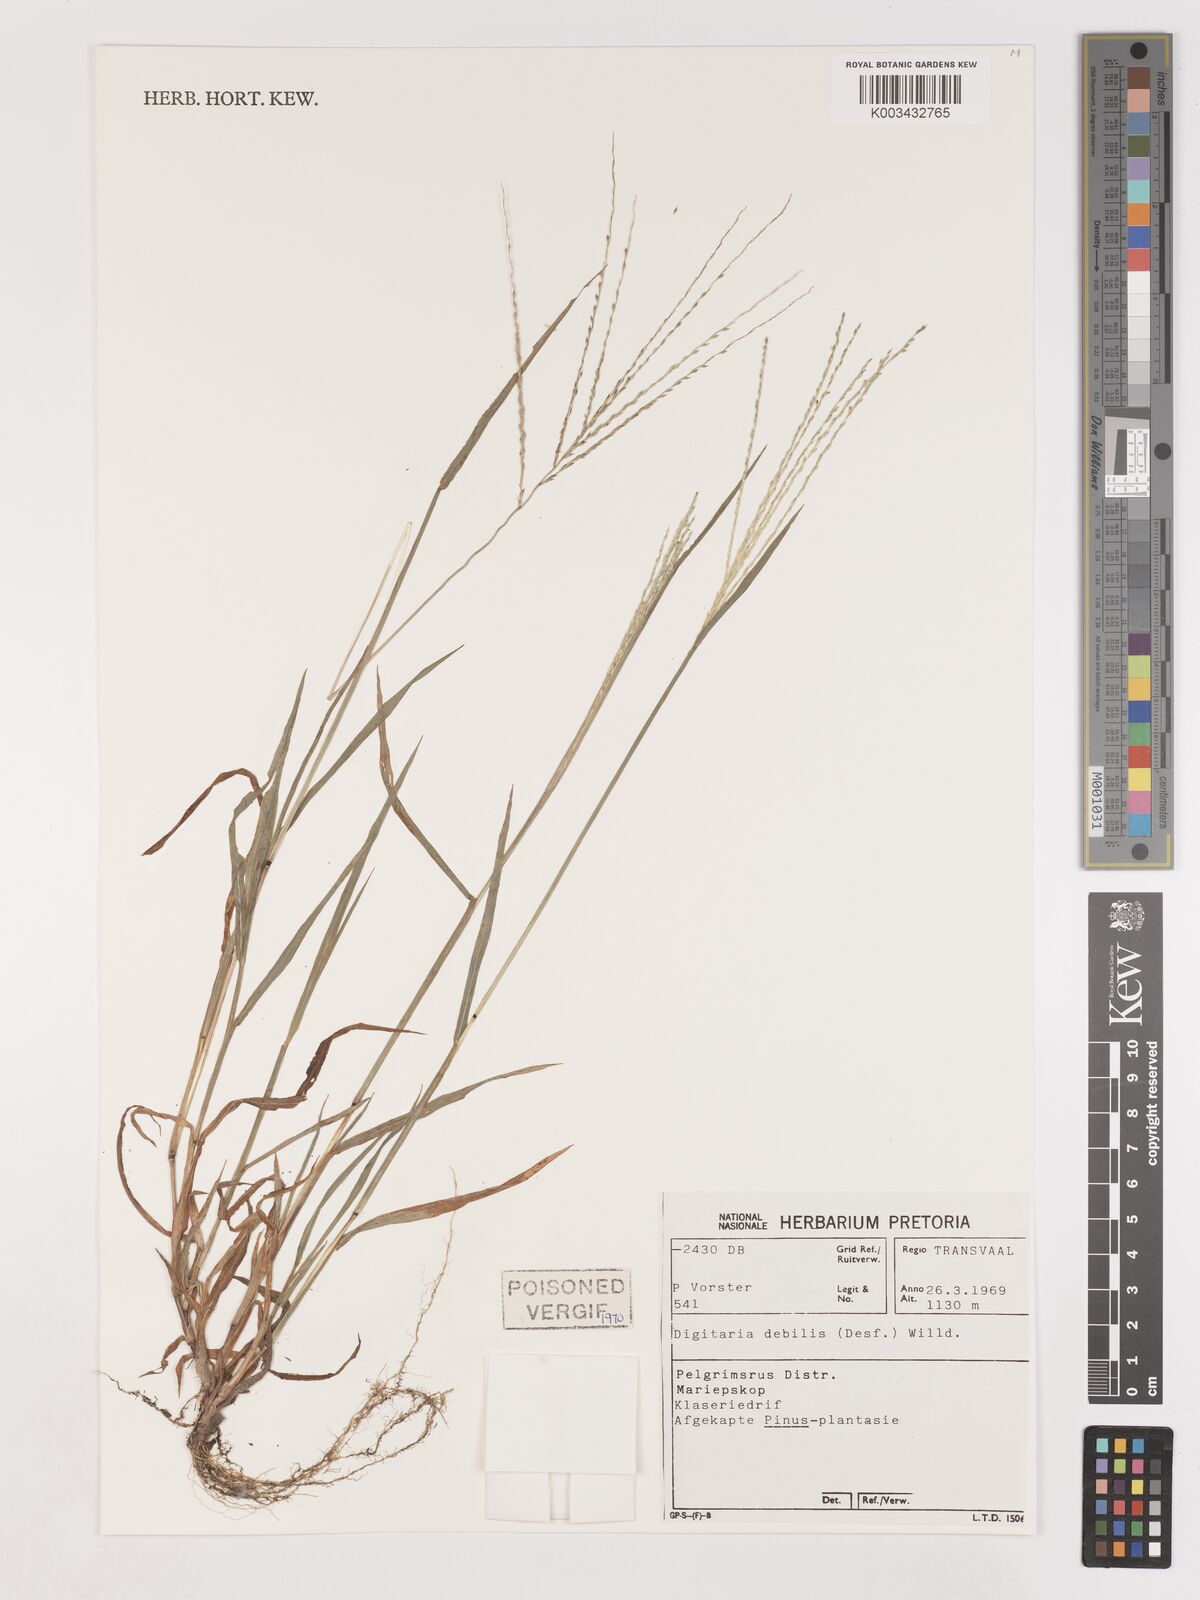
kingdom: Plantae
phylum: Tracheophyta
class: Liliopsida
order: Poales
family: Poaceae
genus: Digitaria
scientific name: Digitaria debilis
